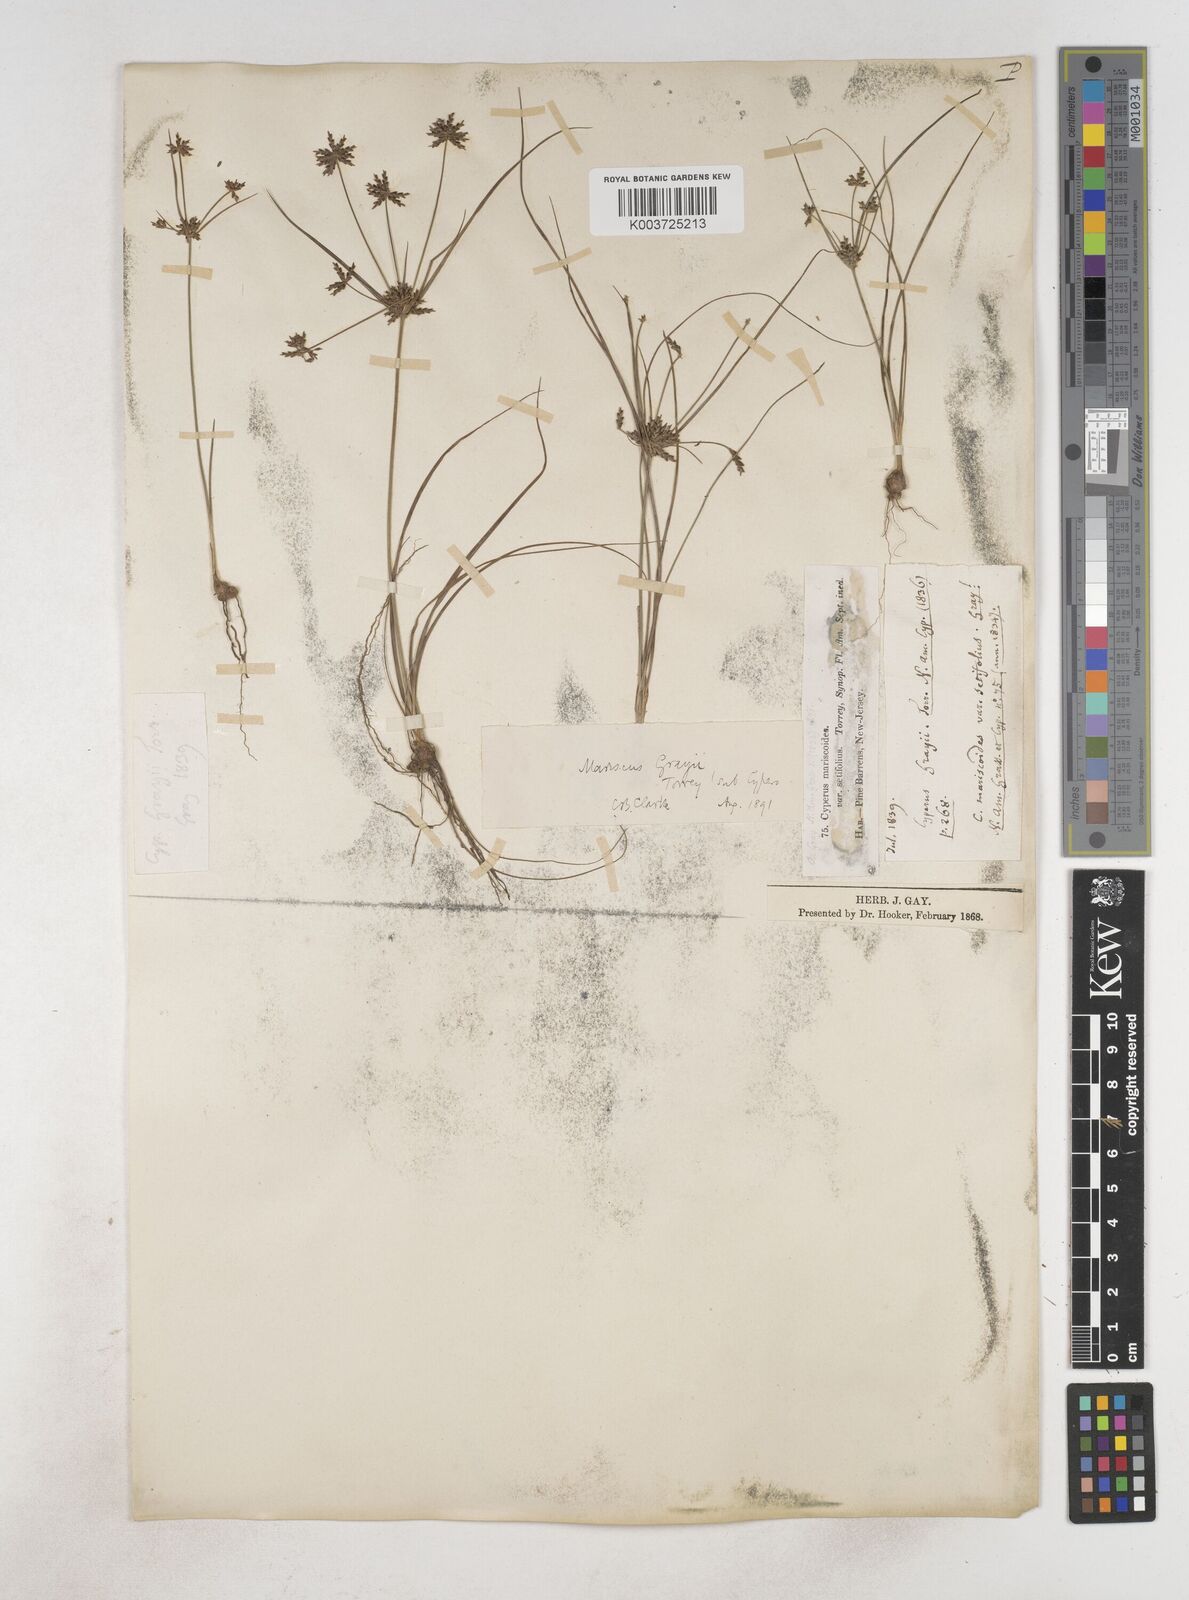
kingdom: Plantae
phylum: Tracheophyta
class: Liliopsida
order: Poales
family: Cyperaceae
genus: Cyperus
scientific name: Cyperus grayi
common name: Gray's flat sedge
